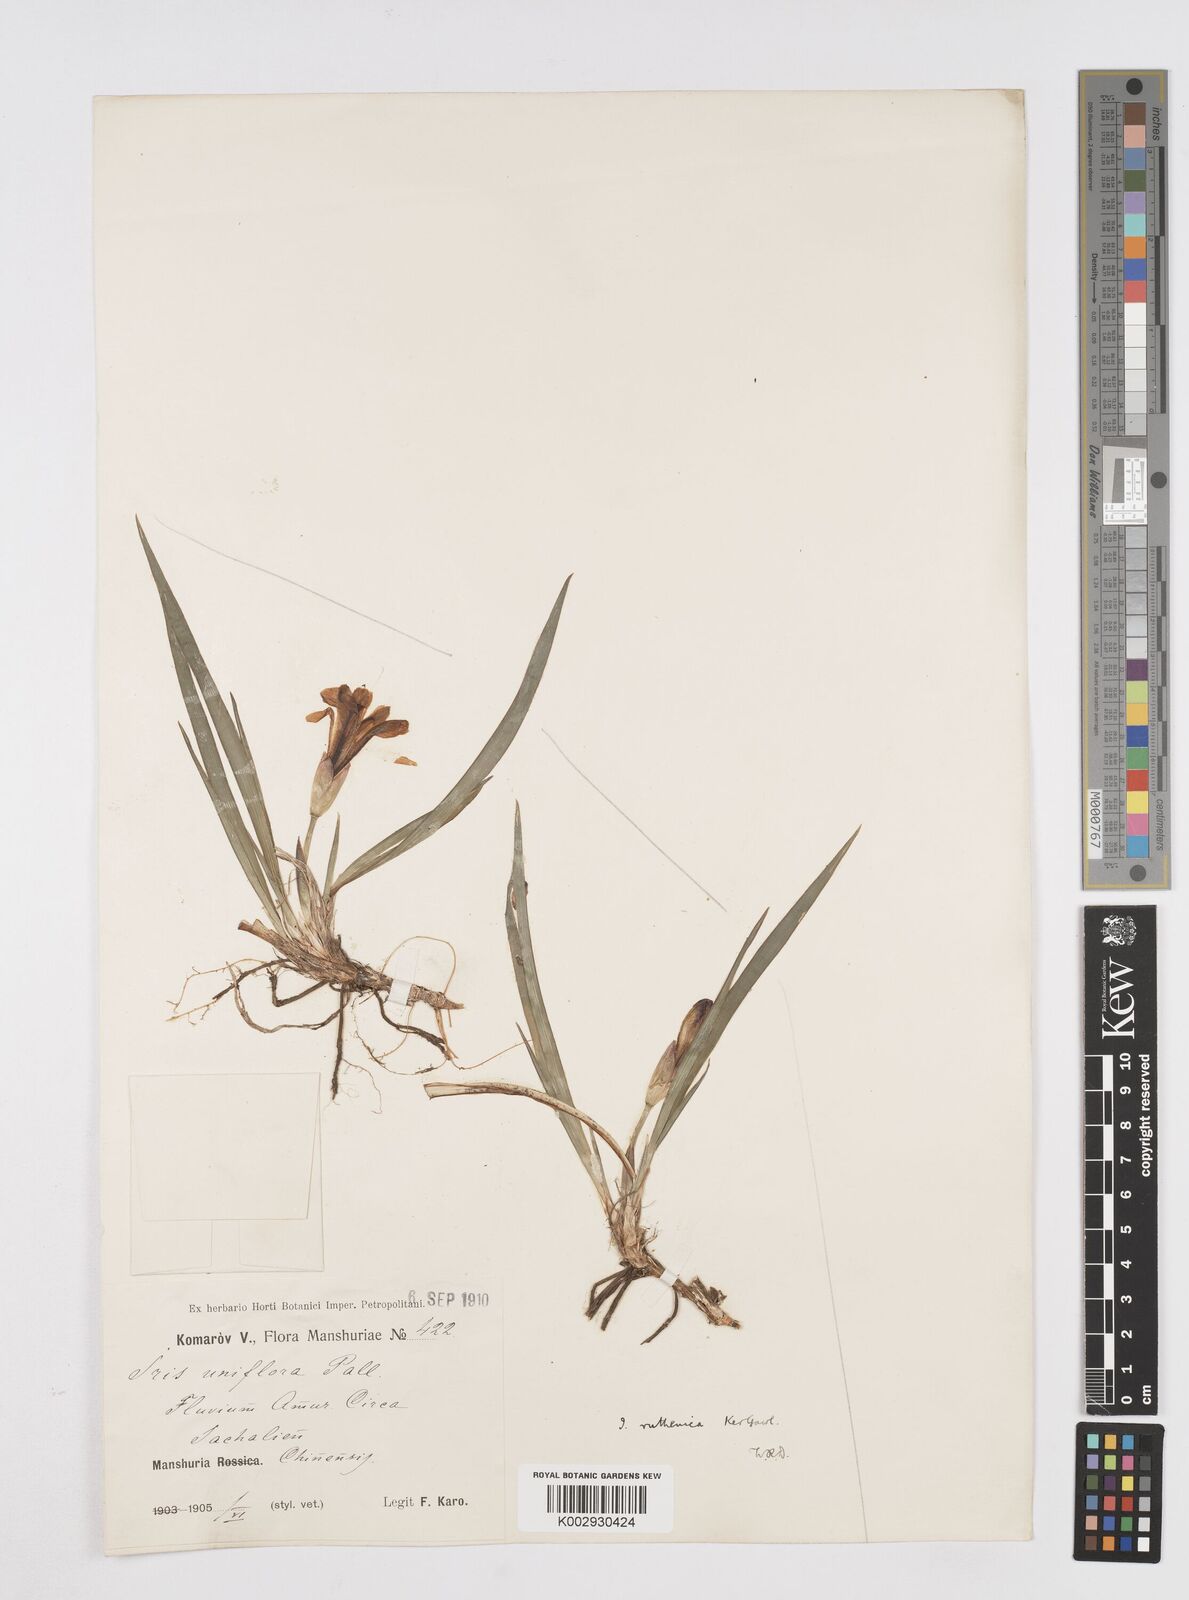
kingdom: Plantae
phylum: Tracheophyta
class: Liliopsida
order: Asparagales
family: Iridaceae
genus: Iris
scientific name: Iris uniflora
